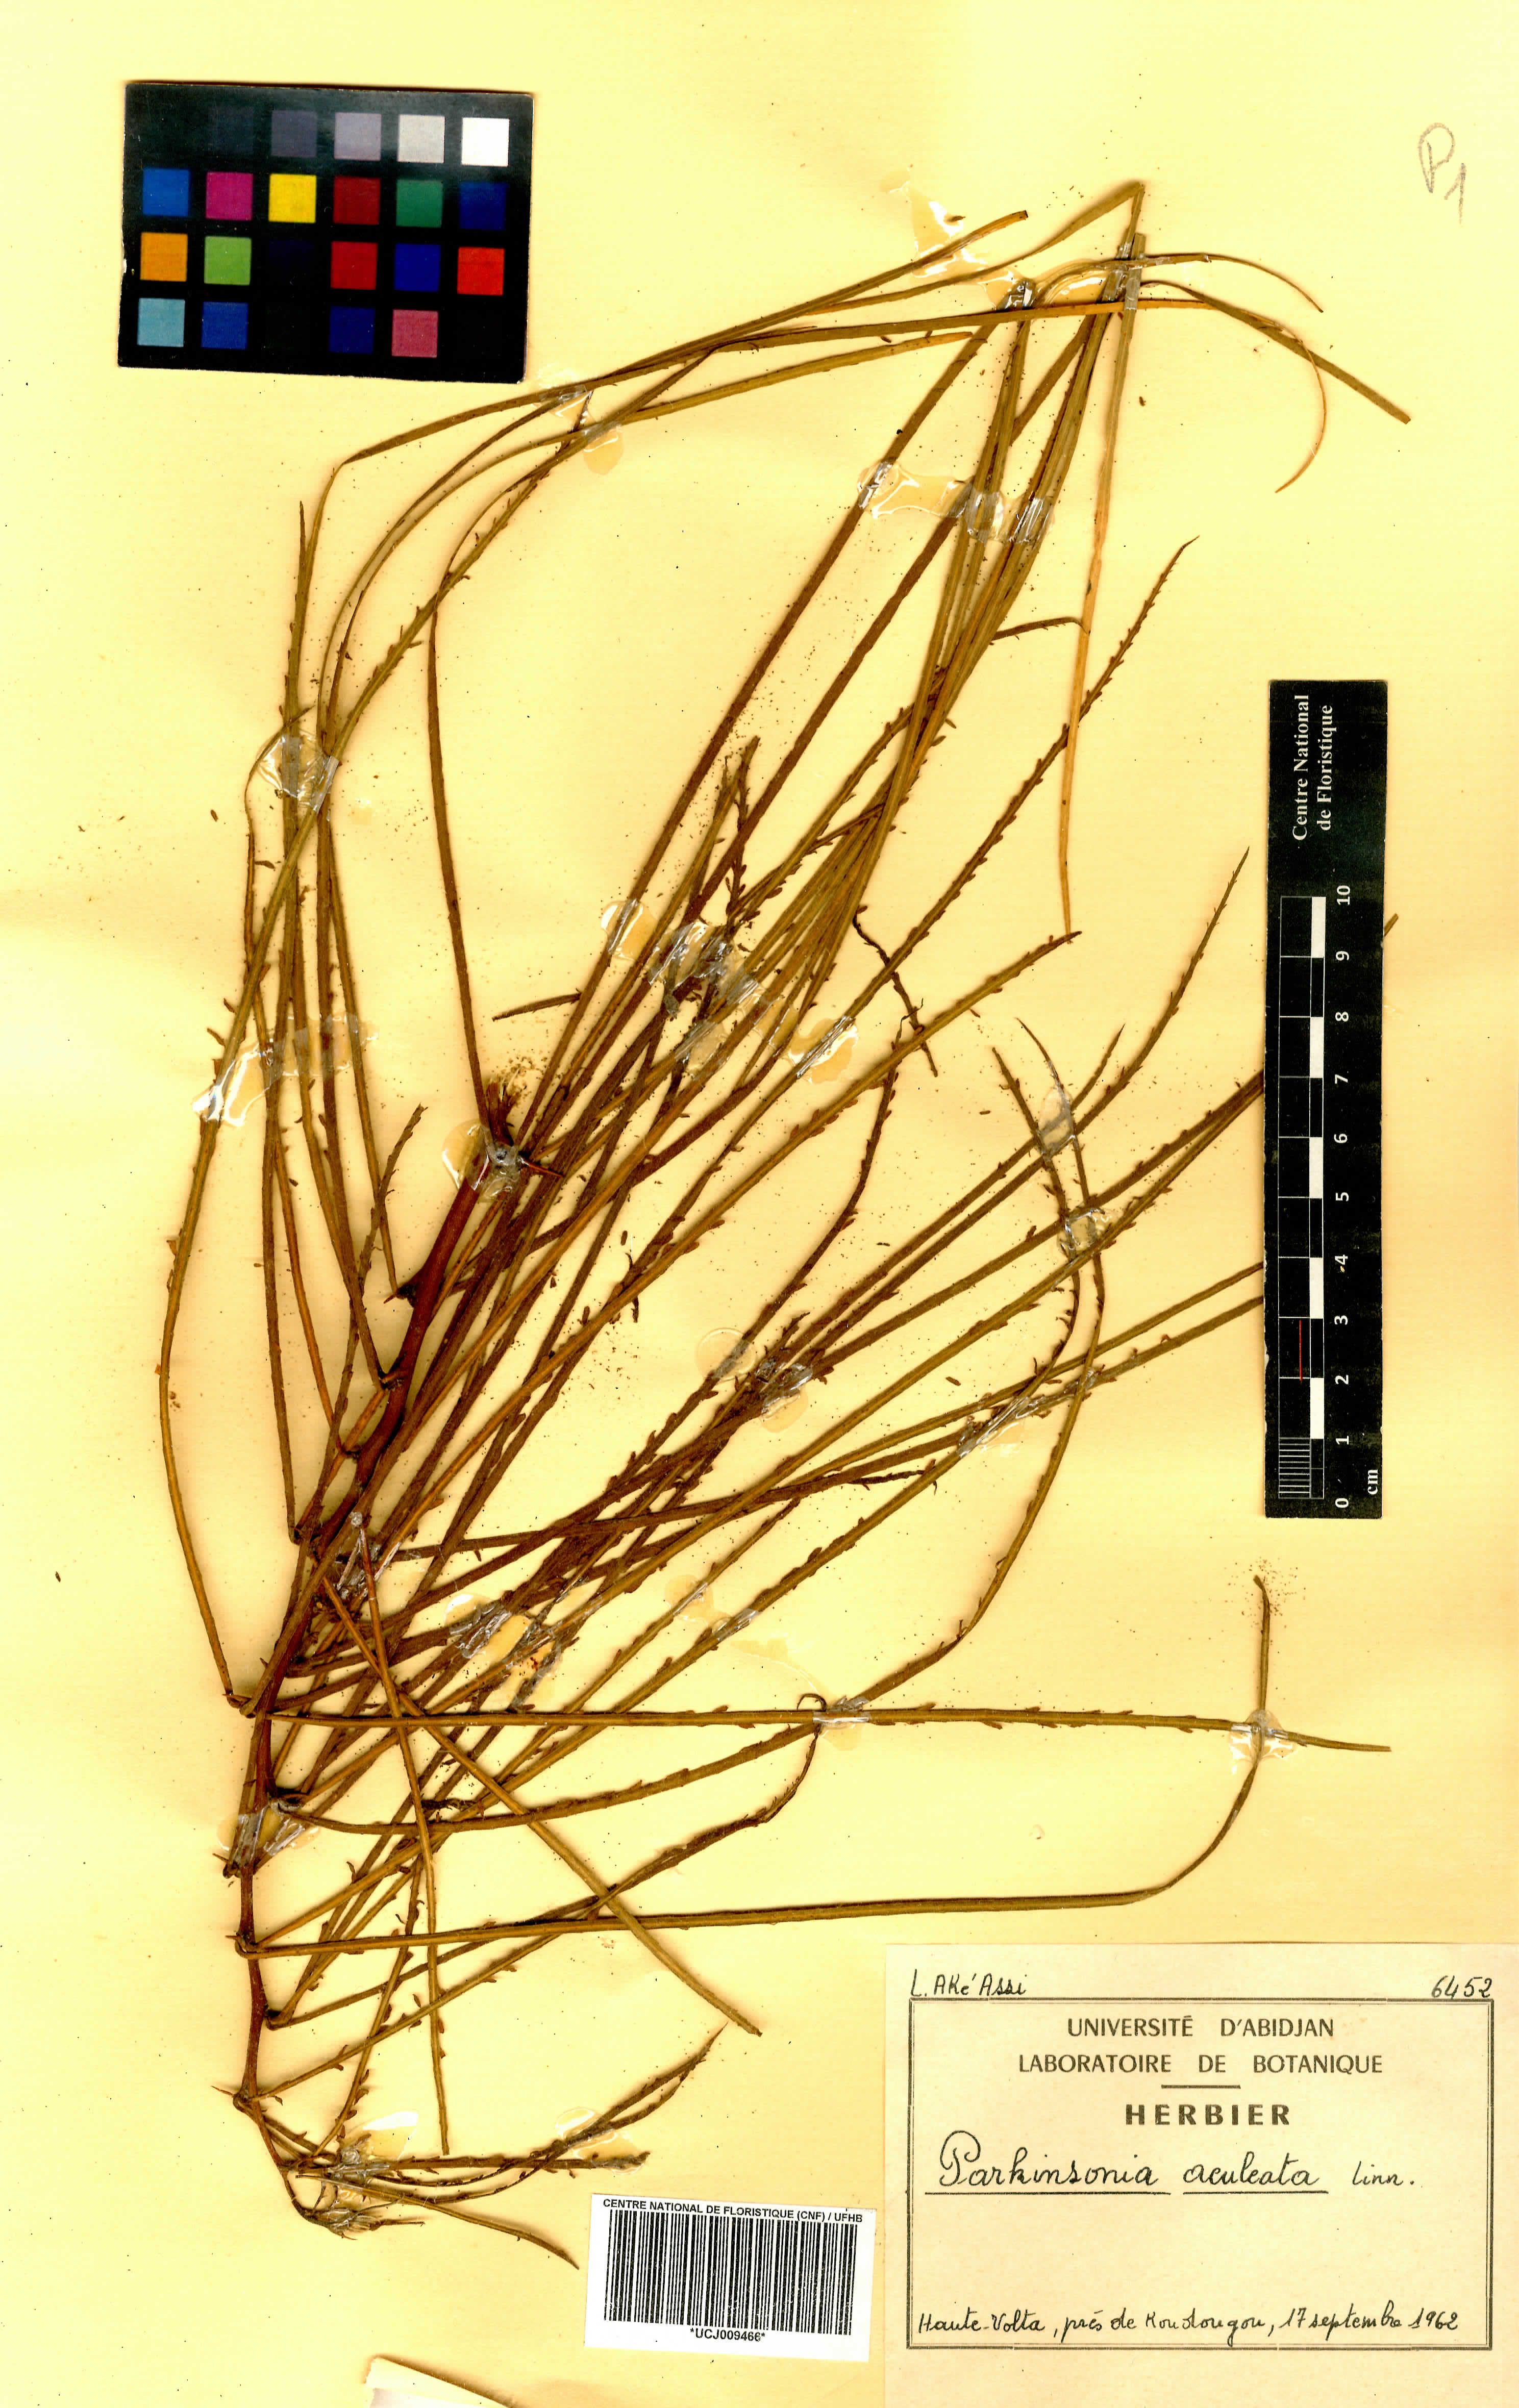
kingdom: Plantae
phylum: Tracheophyta
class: Magnoliopsida
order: Fabales
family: Fabaceae
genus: Parkinsonia
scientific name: Parkinsonia aculeata
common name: Jerusalem thorn
